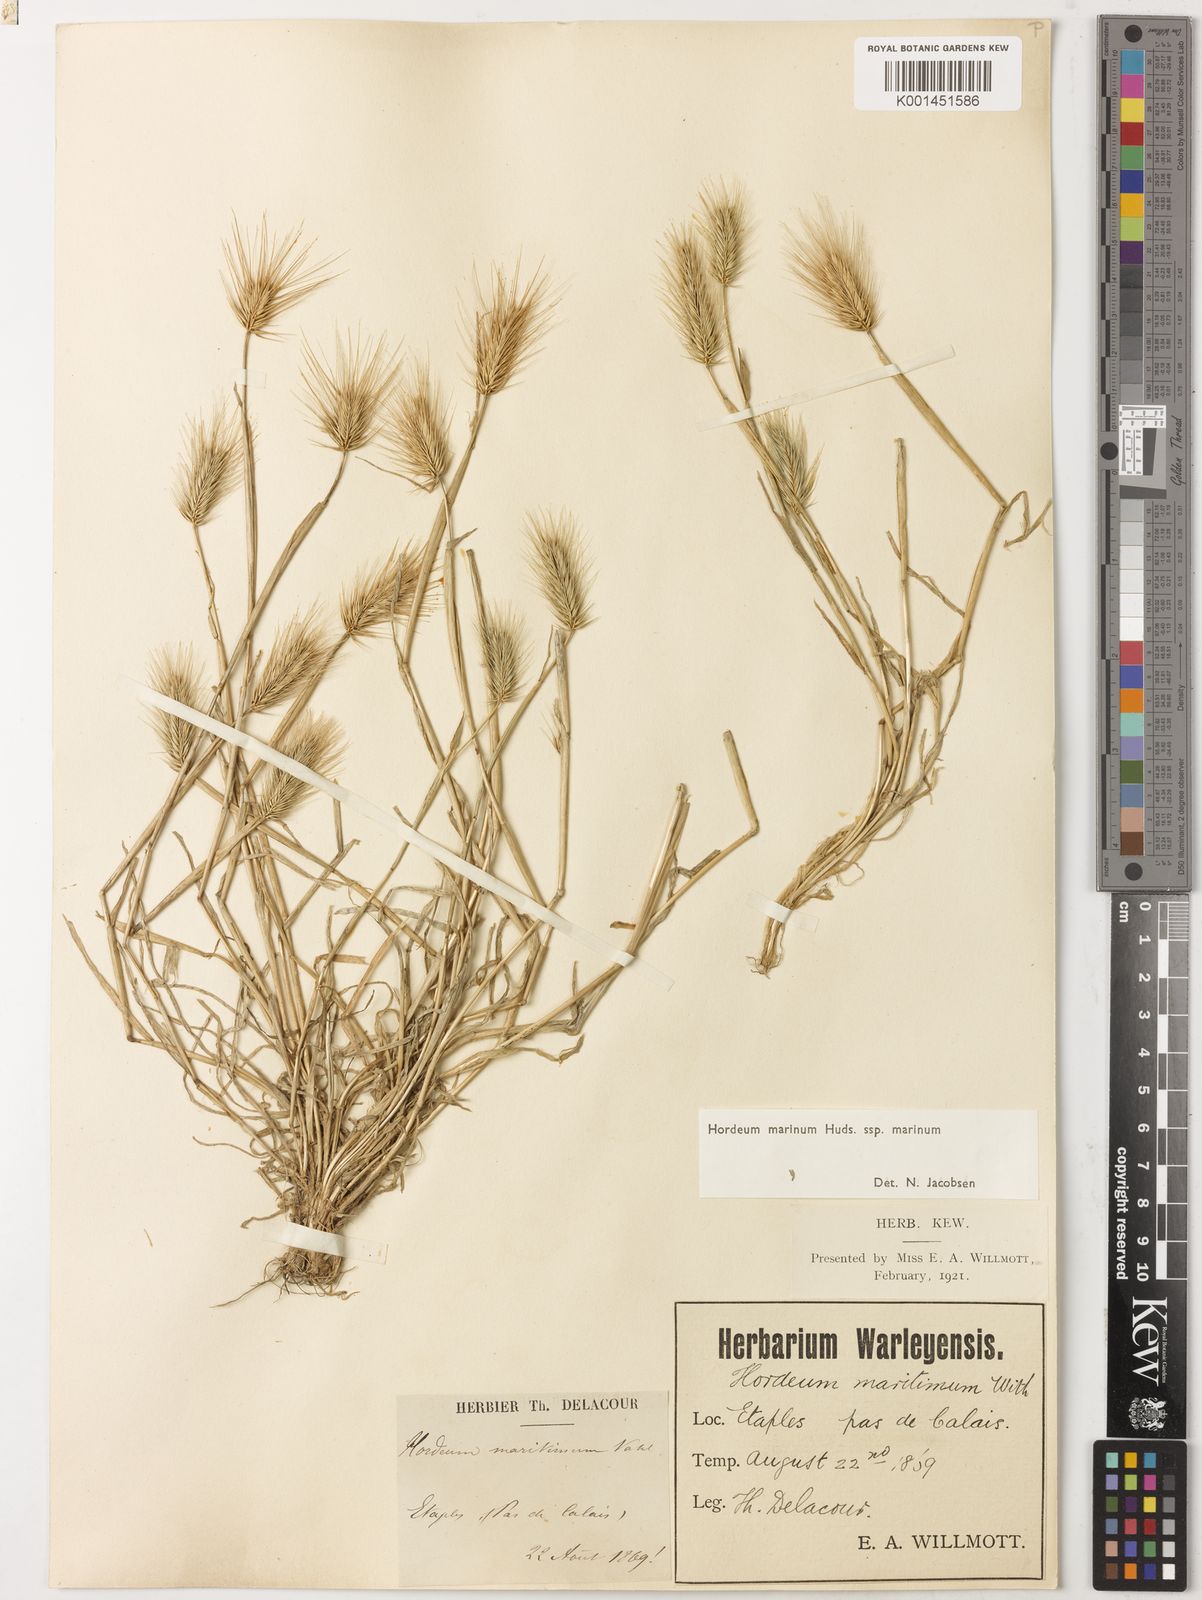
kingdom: Plantae
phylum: Tracheophyta
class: Liliopsida
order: Poales
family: Poaceae
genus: Hordeum
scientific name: Hordeum marinum
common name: Sea barley
